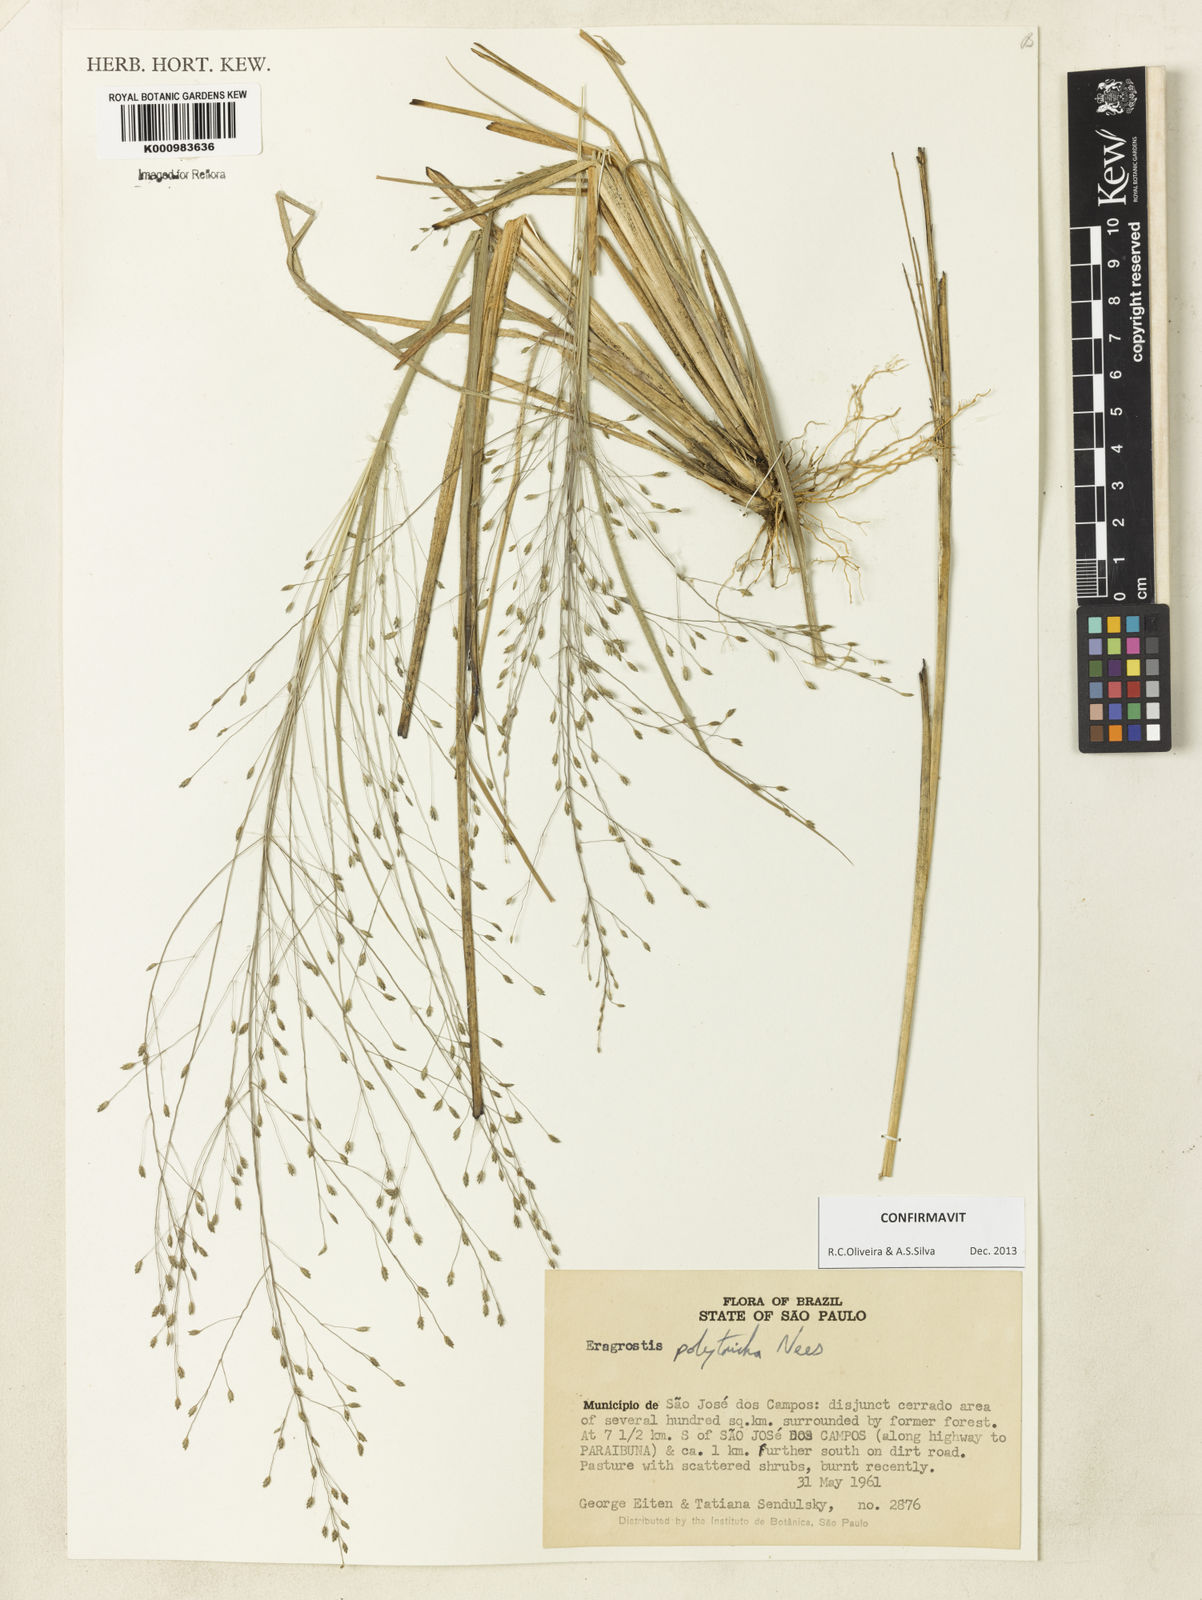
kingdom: Plantae
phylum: Tracheophyta
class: Liliopsida
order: Poales
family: Poaceae
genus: Eragrostis
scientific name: Eragrostis polytricha
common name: Hairy-sheath love grass
